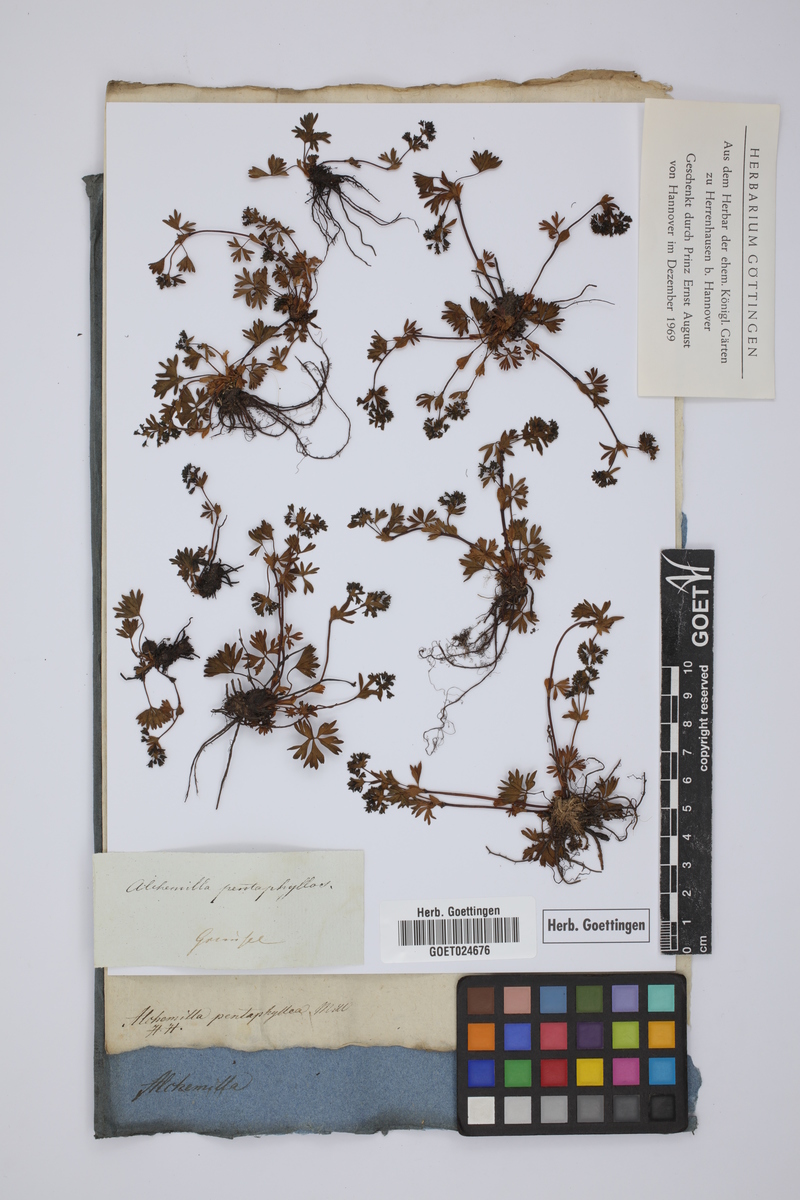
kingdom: Plantae
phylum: Tracheophyta
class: Magnoliopsida
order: Rosales
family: Rosaceae
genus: Alchemilla
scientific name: Alchemilla pentaphyllea
